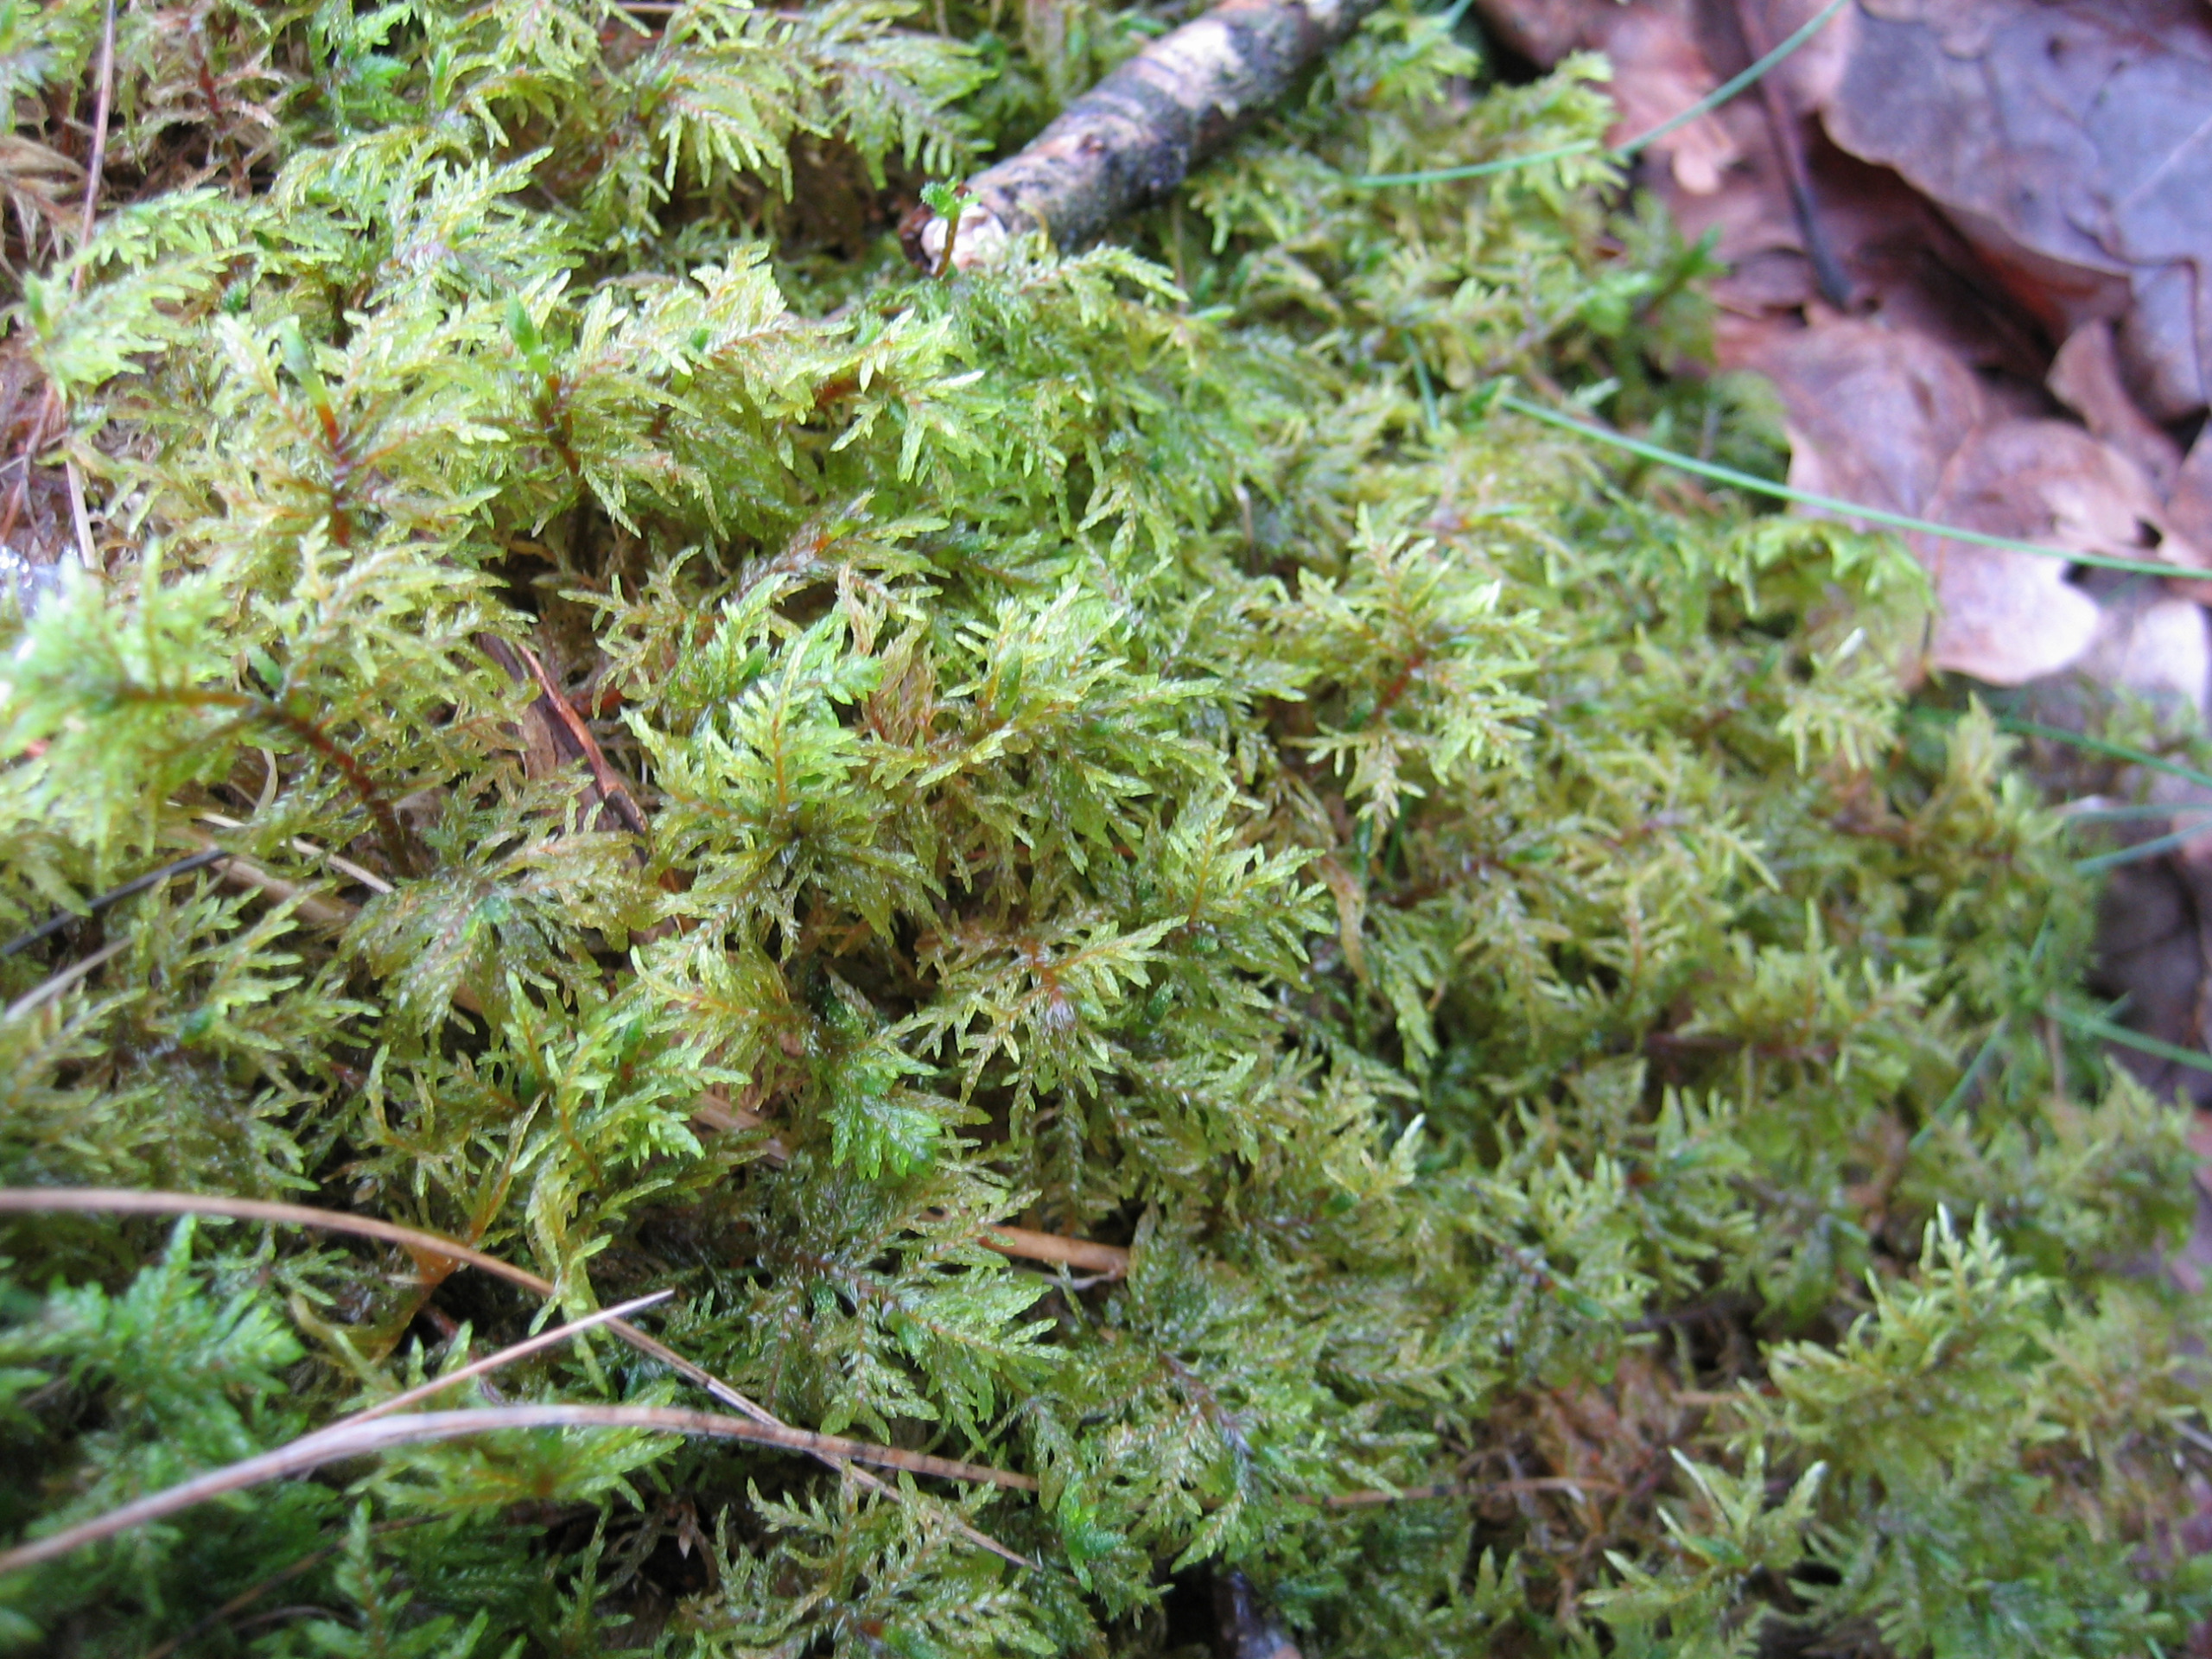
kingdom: Plantae
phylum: Bryophyta
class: Bryopsida
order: Hypnales
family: Hylocomiaceae
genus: Hylocomium
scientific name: Hylocomium splendens
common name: Almindelig etagemos
